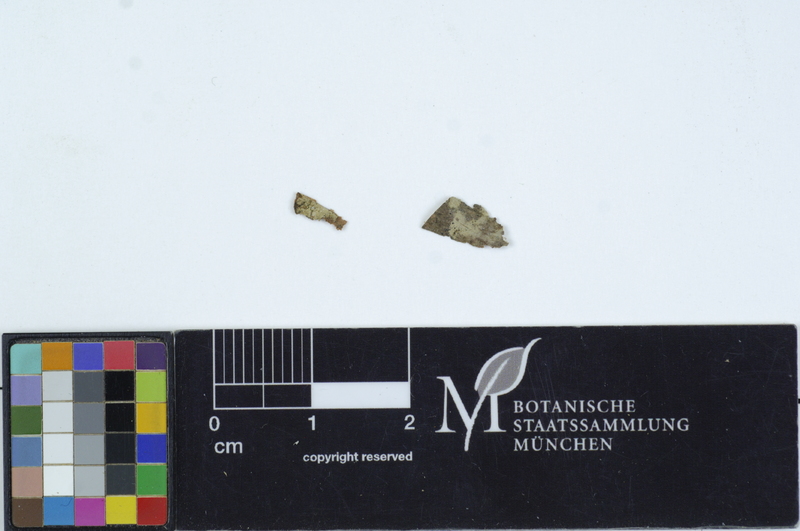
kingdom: Fungi
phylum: Basidiomycota
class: Agaricomycetes
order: Cantharellales
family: Ceratobasidiaceae
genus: Rhizoctonia
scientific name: Rhizoctonia bicornis
